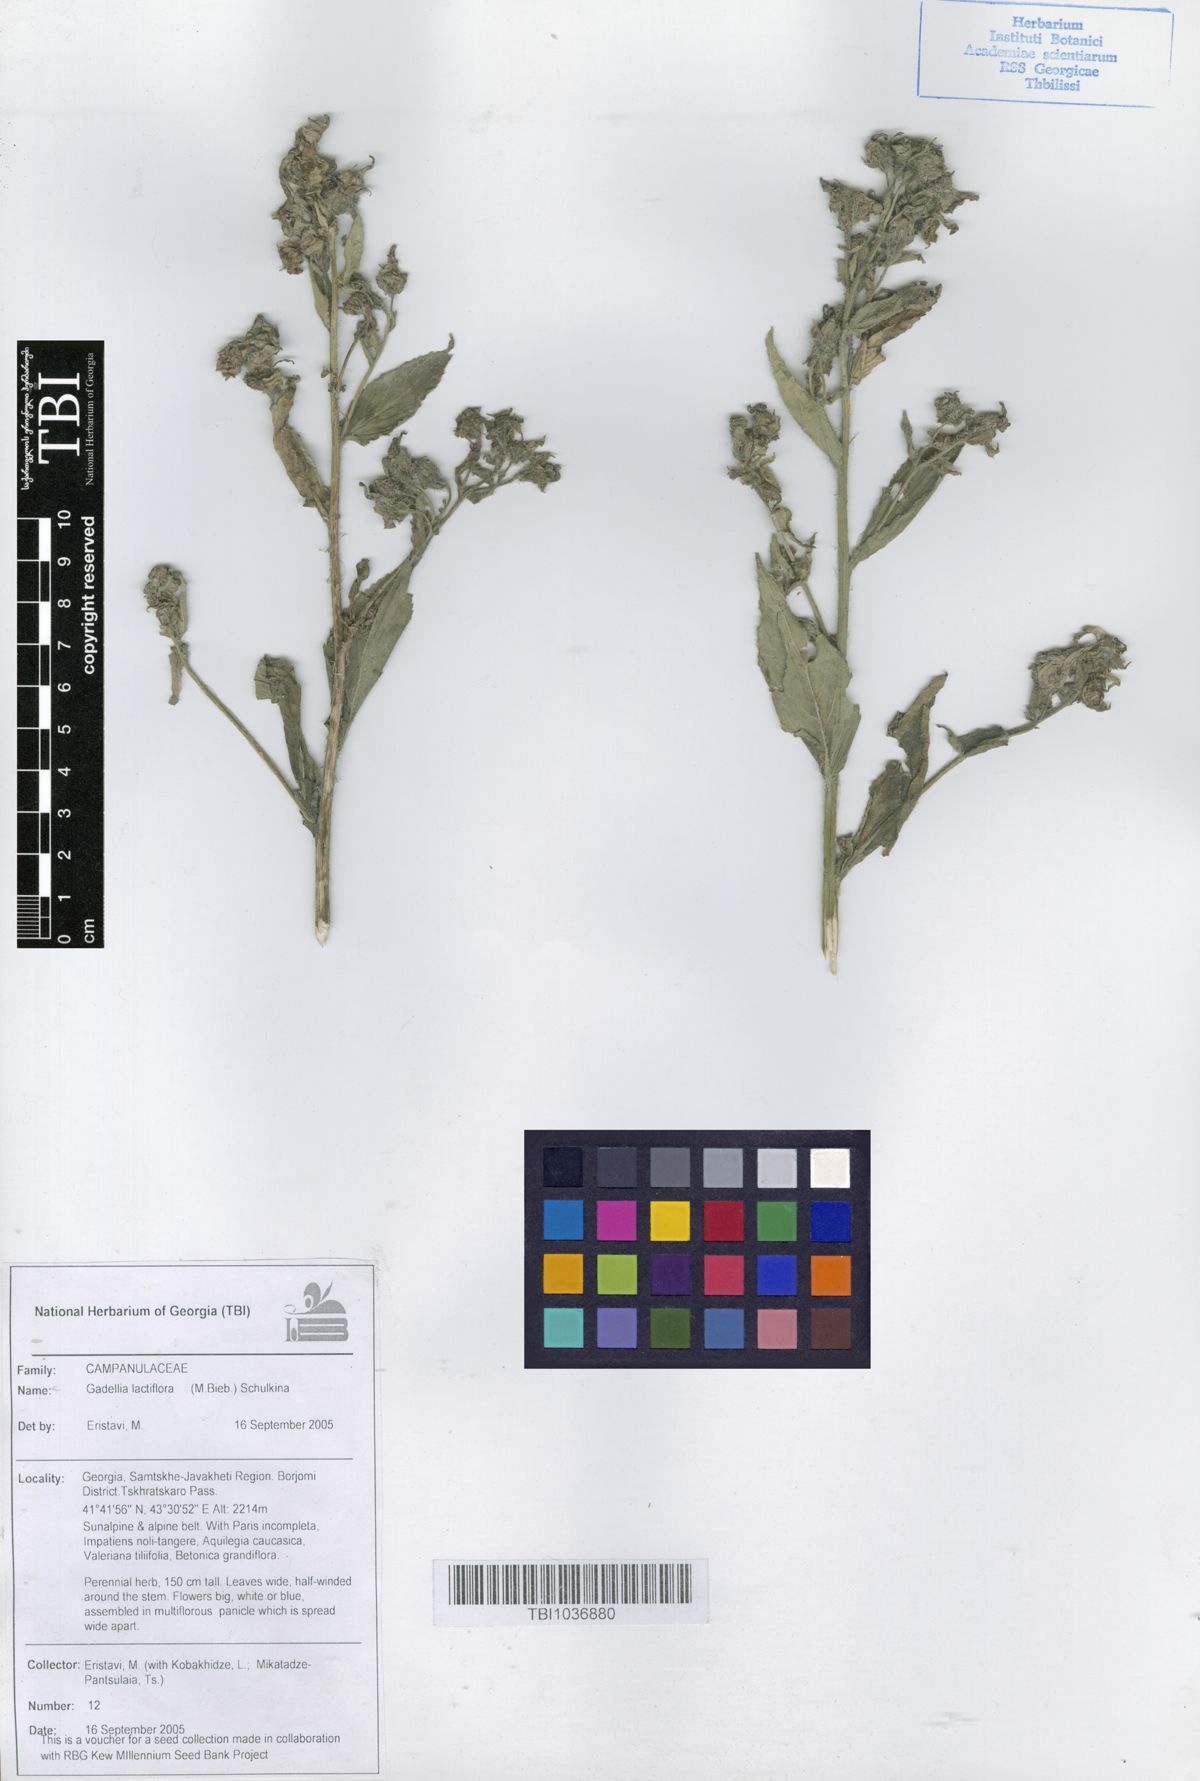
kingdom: Plantae
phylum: Tracheophyta
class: Magnoliopsida
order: Asterales
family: Campanulaceae
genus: Campanula
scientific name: Campanula lactiflora
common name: Milky bellflower
